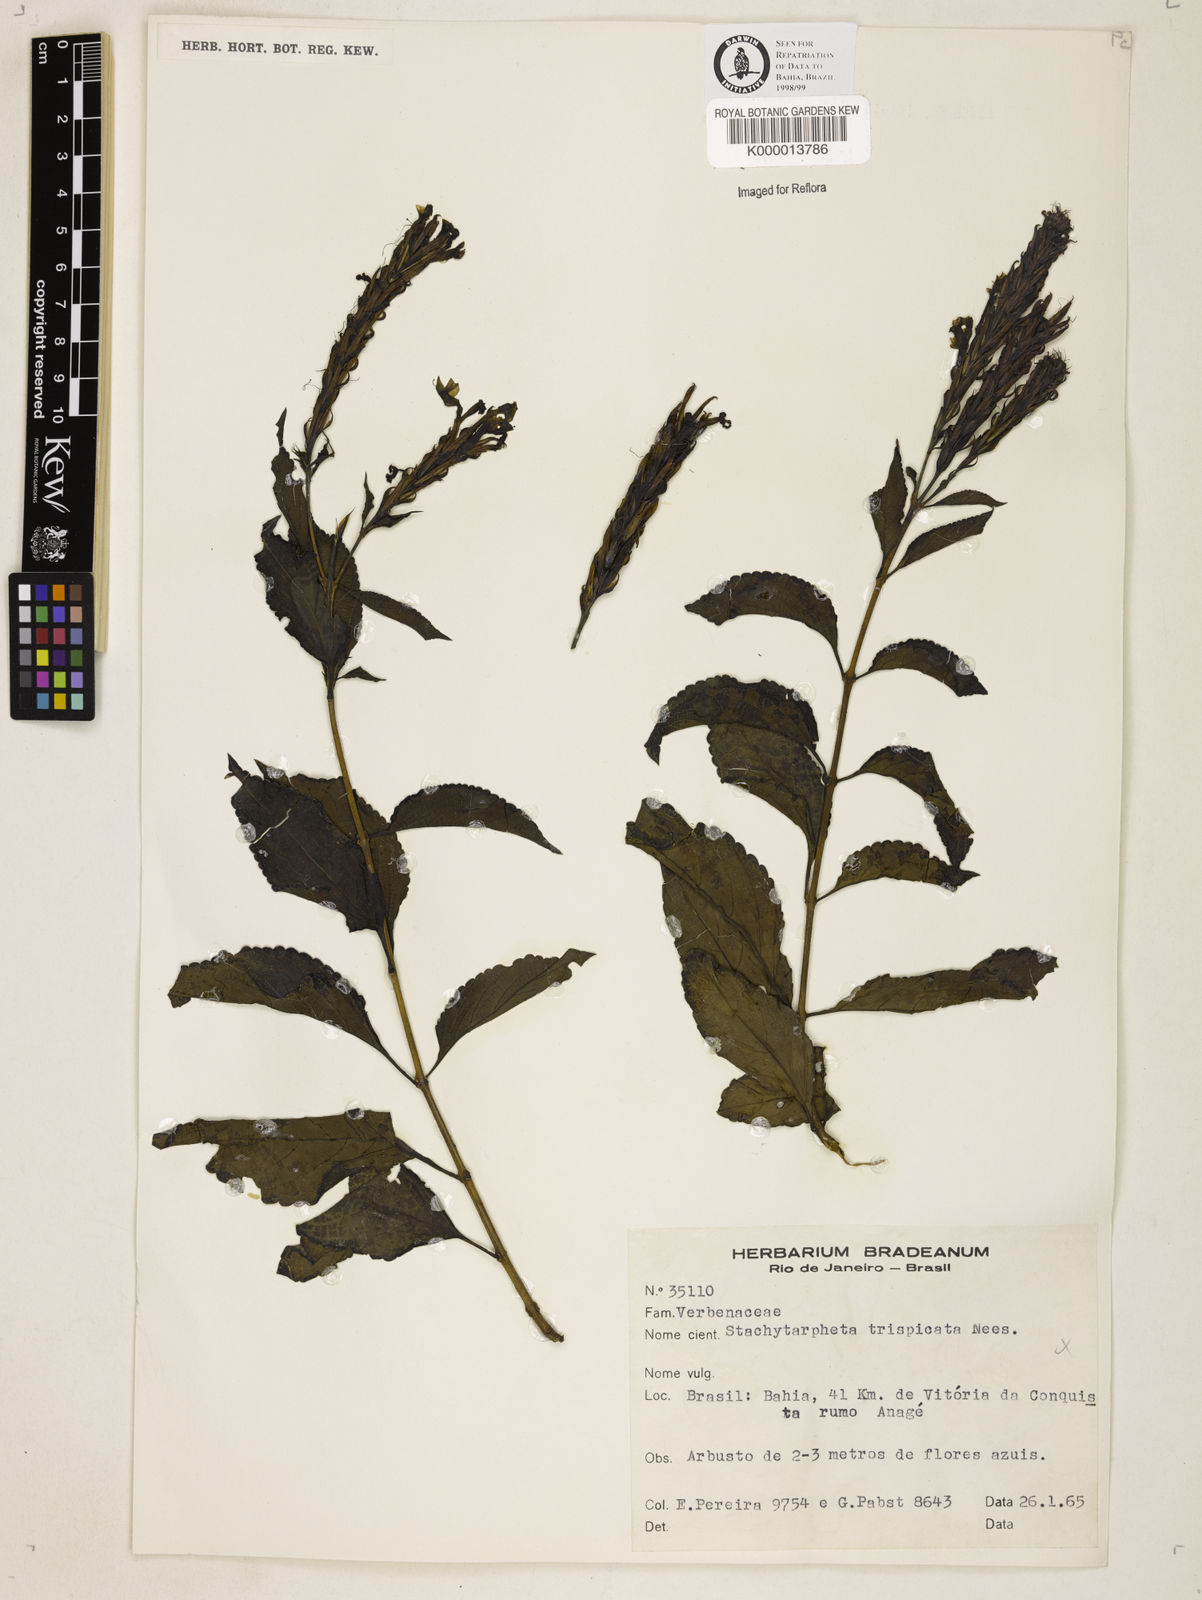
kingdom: Plantae
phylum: Tracheophyta
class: Magnoliopsida
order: Lamiales
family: Verbenaceae
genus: Stachytarpheta
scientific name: Stachytarpheta trispicata
